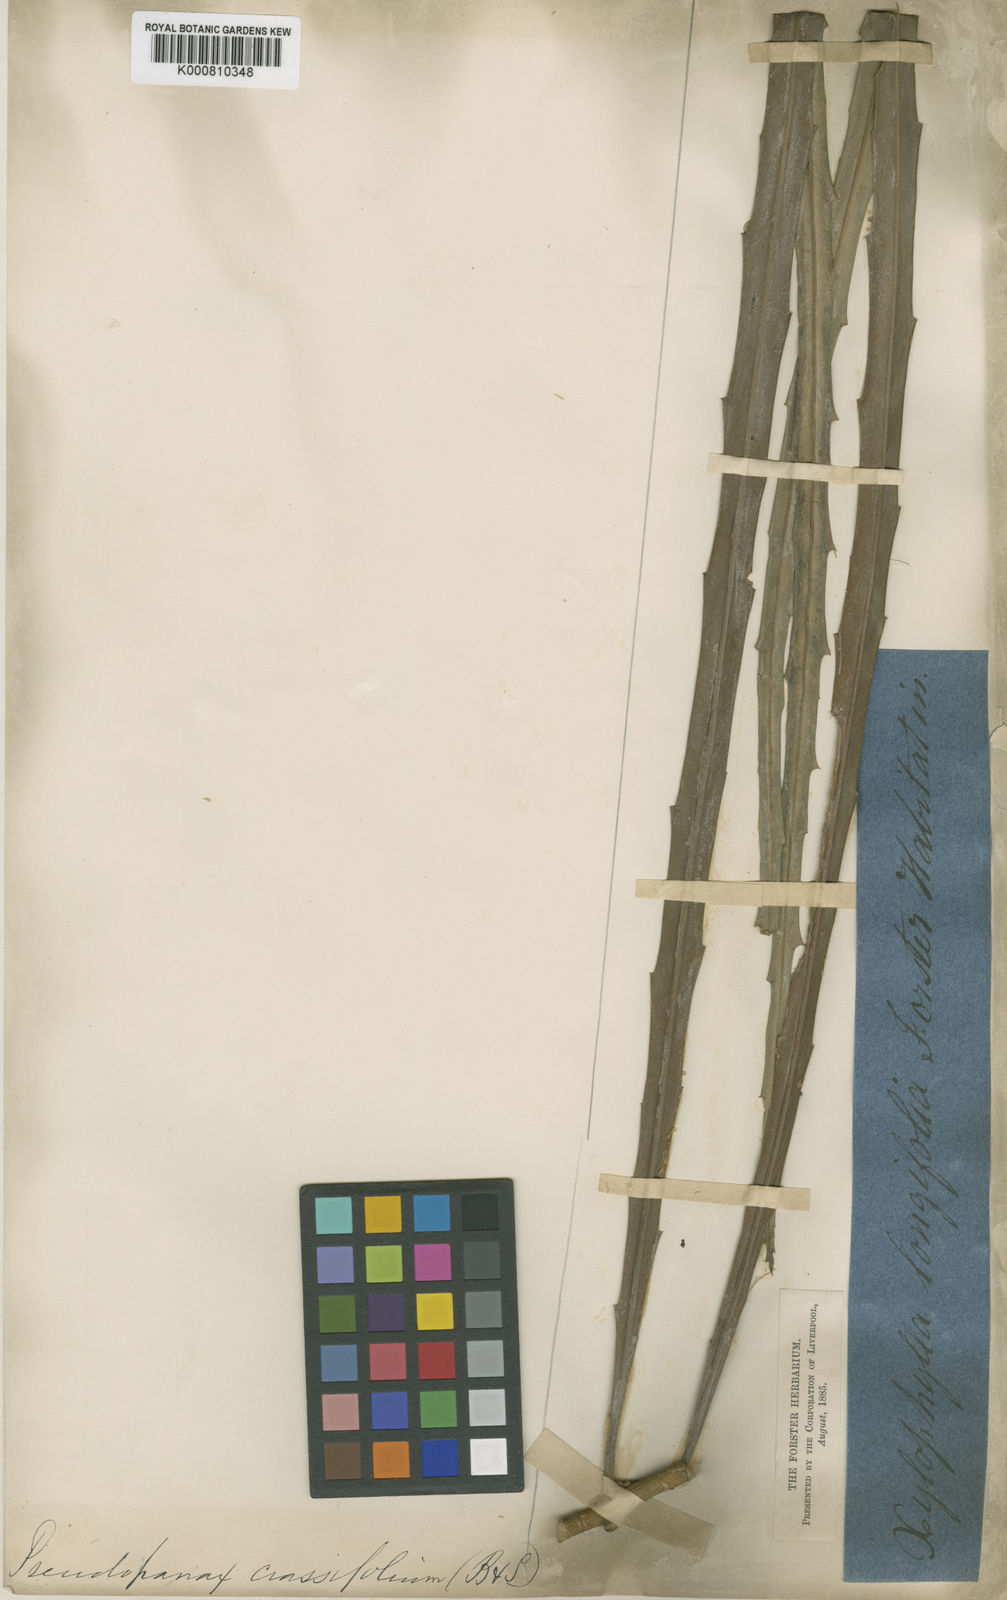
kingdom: Plantae
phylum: Tracheophyta
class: Magnoliopsida
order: Apiales
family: Araliaceae
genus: Pseudopanax
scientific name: Pseudopanax crassifolius
